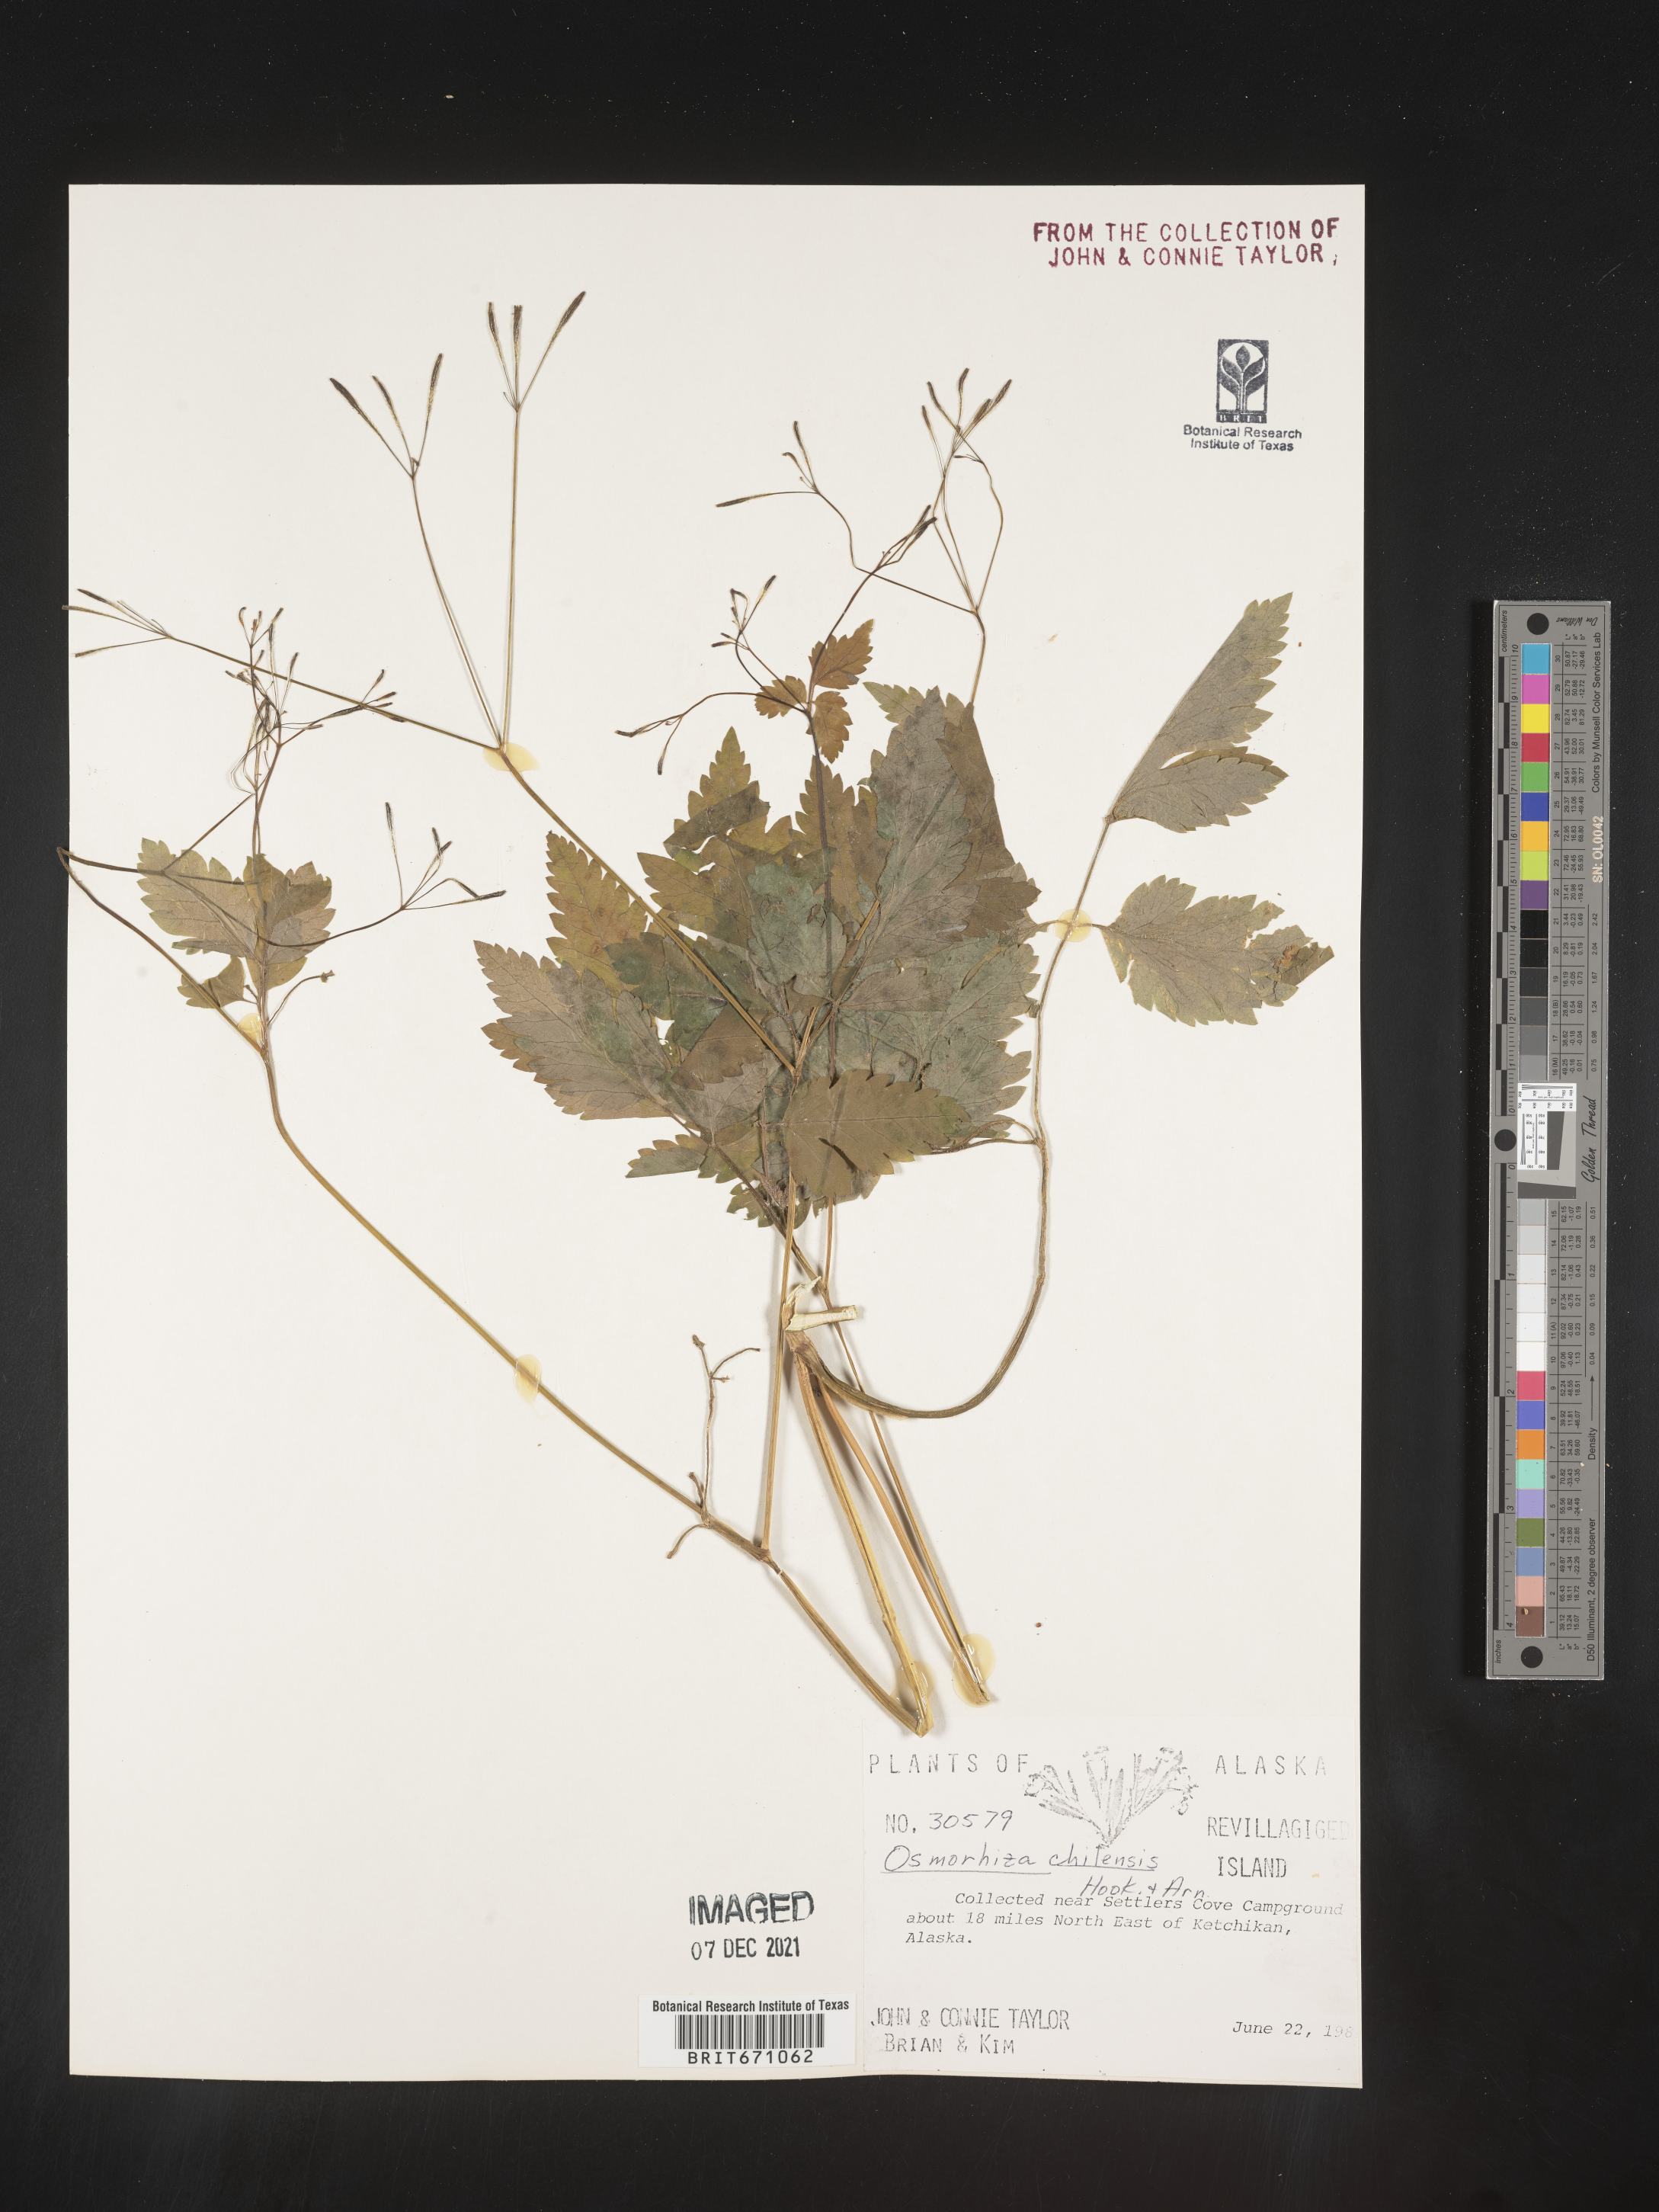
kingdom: Plantae
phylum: Tracheophyta
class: Magnoliopsida
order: Apiales
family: Apiaceae
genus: Osmorhiza
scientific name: Osmorhiza berteroi
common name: Mountain sweet cicely
